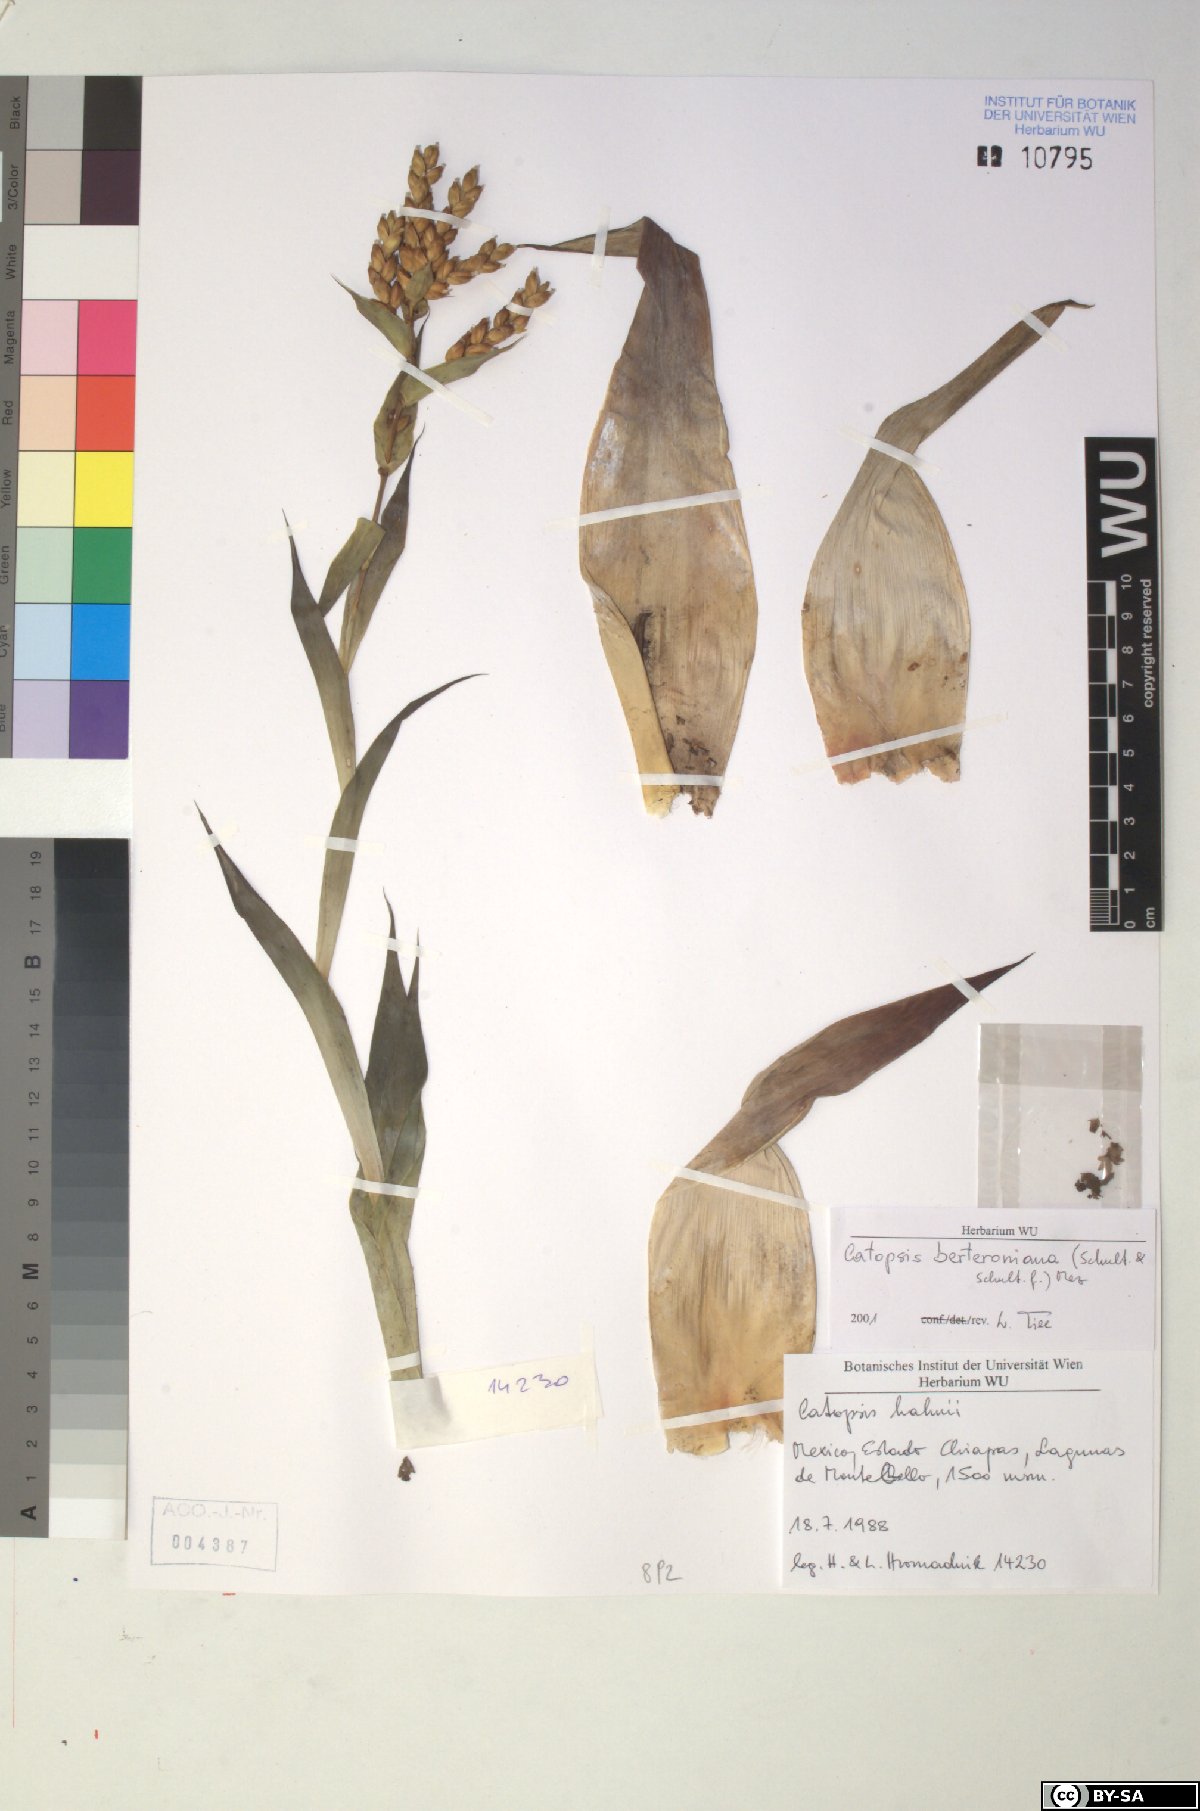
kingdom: Plantae
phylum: Tracheophyta
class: Liliopsida
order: Poales
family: Bromeliaceae
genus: Catopsis
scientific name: Catopsis berteroniana
